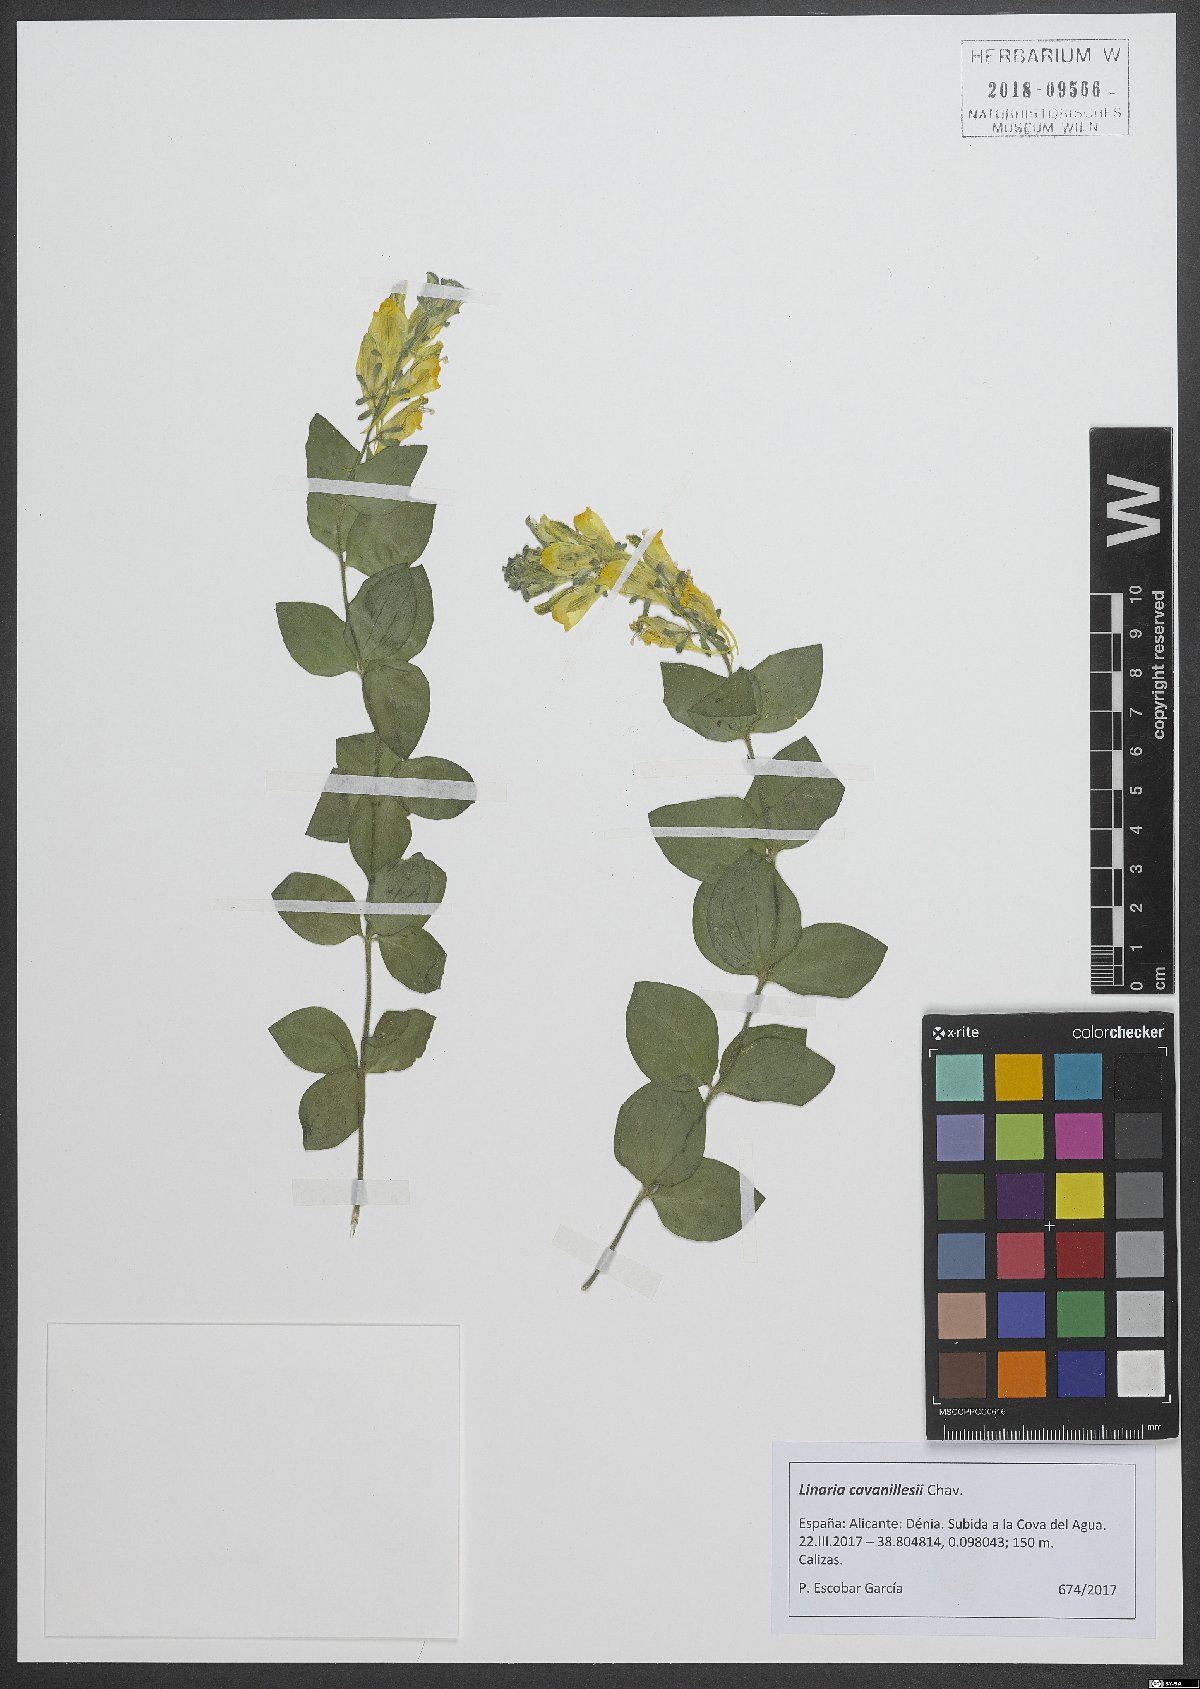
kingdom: Plantae
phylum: Tracheophyta
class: Magnoliopsida
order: Lamiales
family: Plantaginaceae
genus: Linaria
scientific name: Linaria cavanillesii
